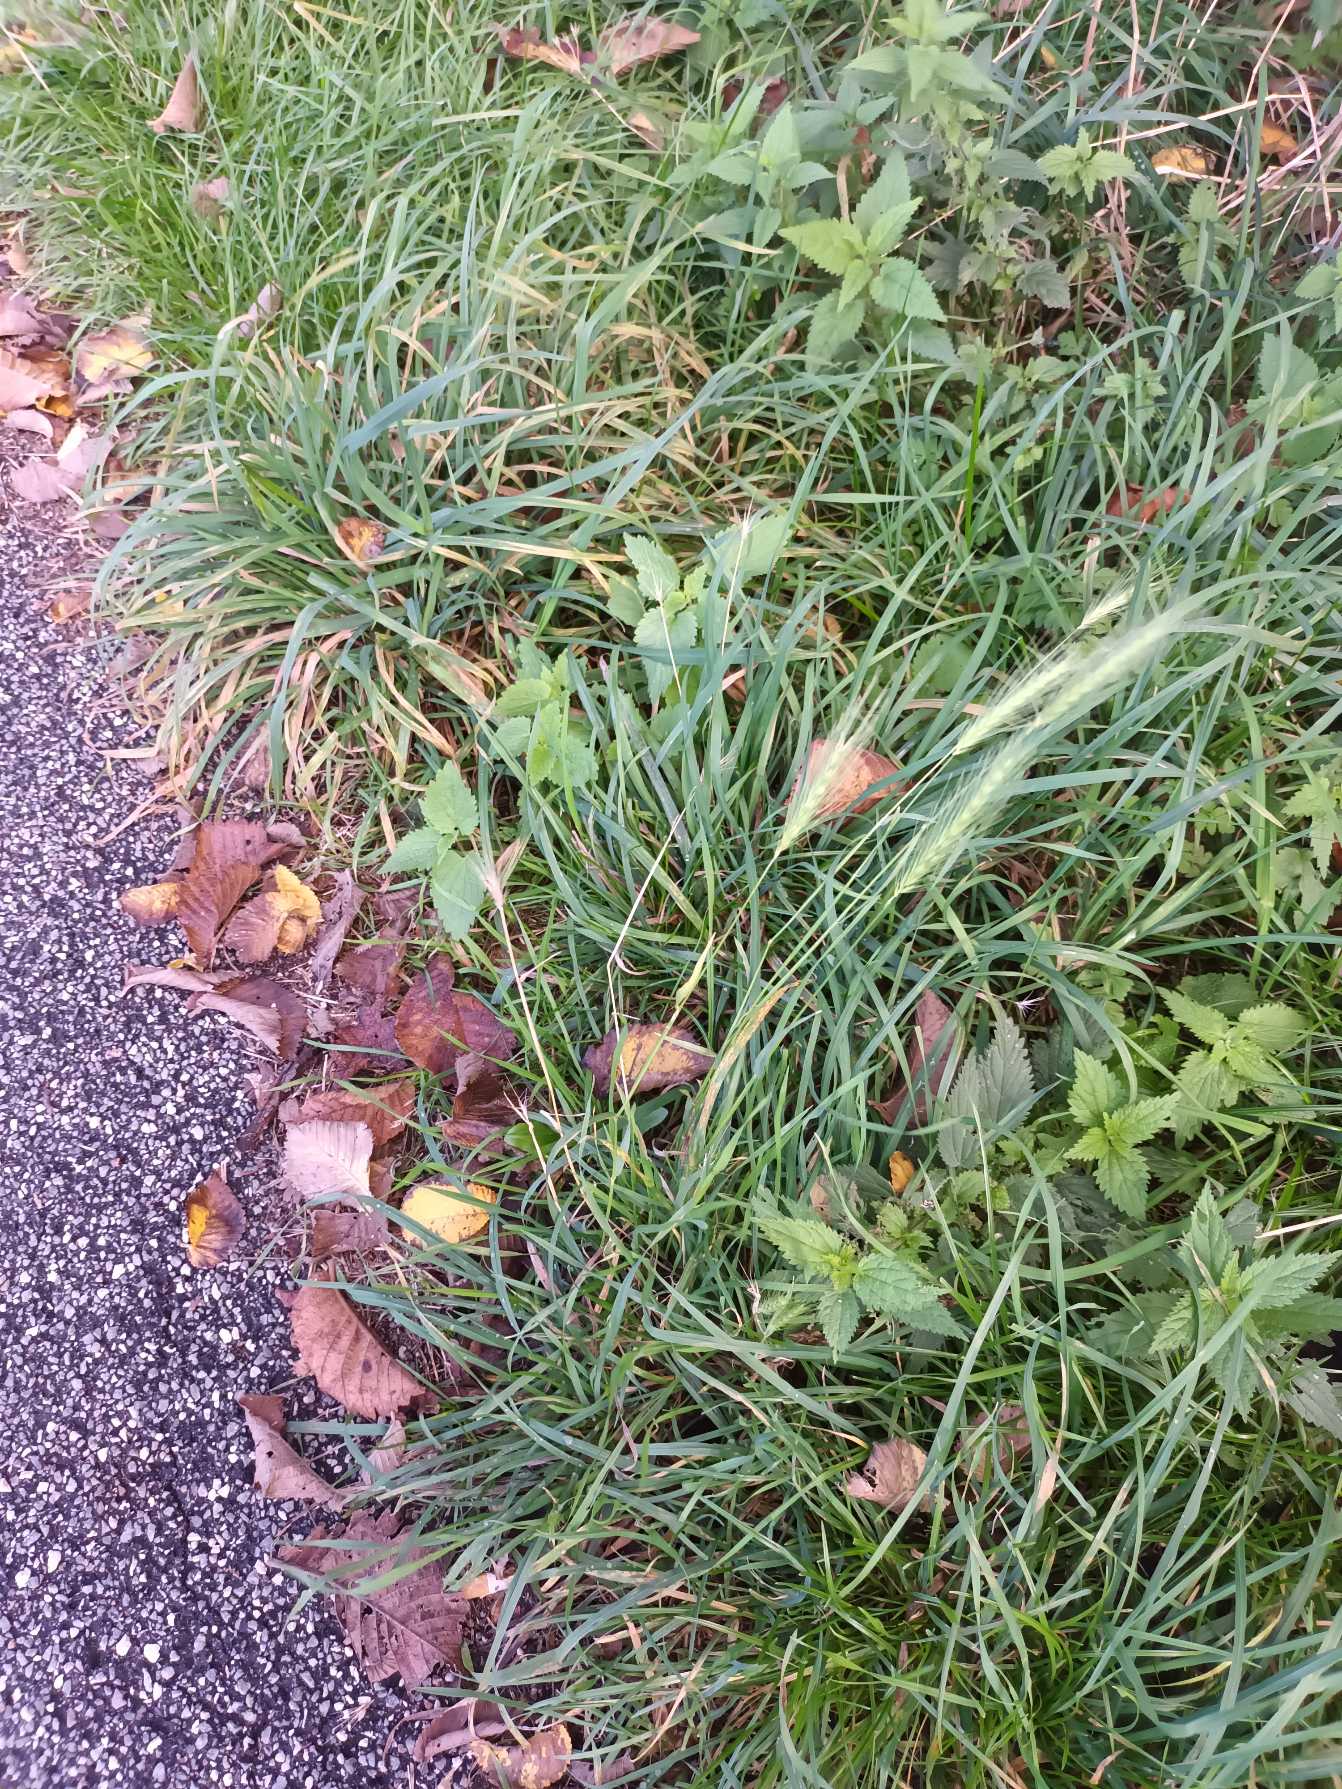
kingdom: Plantae
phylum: Tracheophyta
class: Liliopsida
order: Poales
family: Poaceae
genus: Hordeum
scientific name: Hordeum murinum
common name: Gold byg
